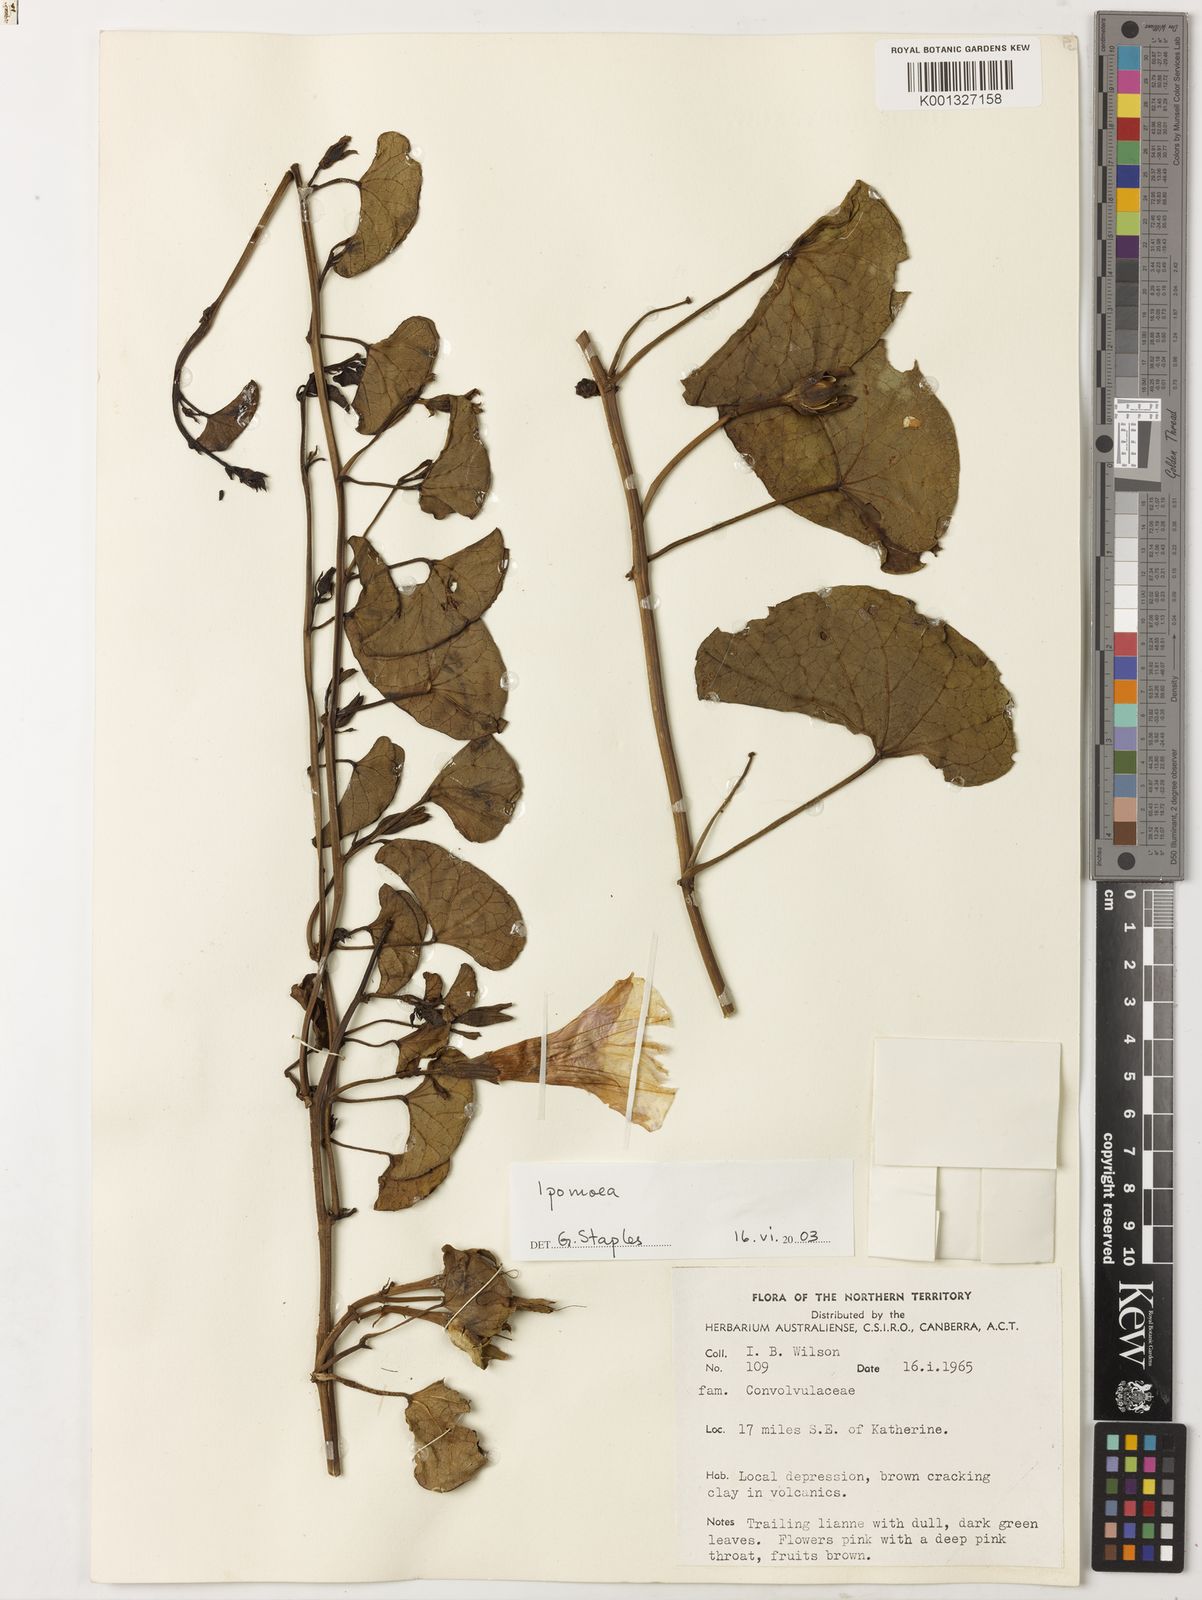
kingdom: Plantae
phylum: Tracheophyta
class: Magnoliopsida
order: Solanales
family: Convolvulaceae
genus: Ipomoea
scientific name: Ipomoea
